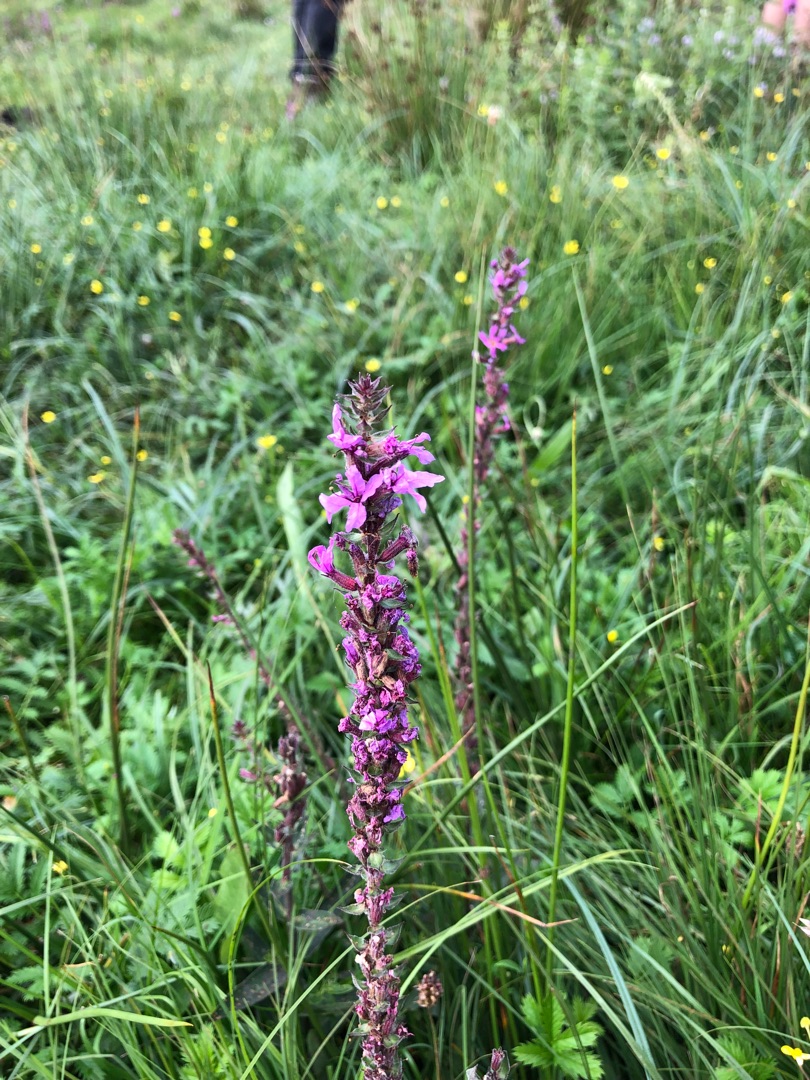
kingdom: Plantae
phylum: Tracheophyta
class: Magnoliopsida
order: Myrtales
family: Lythraceae
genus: Lythrum
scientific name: Lythrum salicaria
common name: Kattehale
